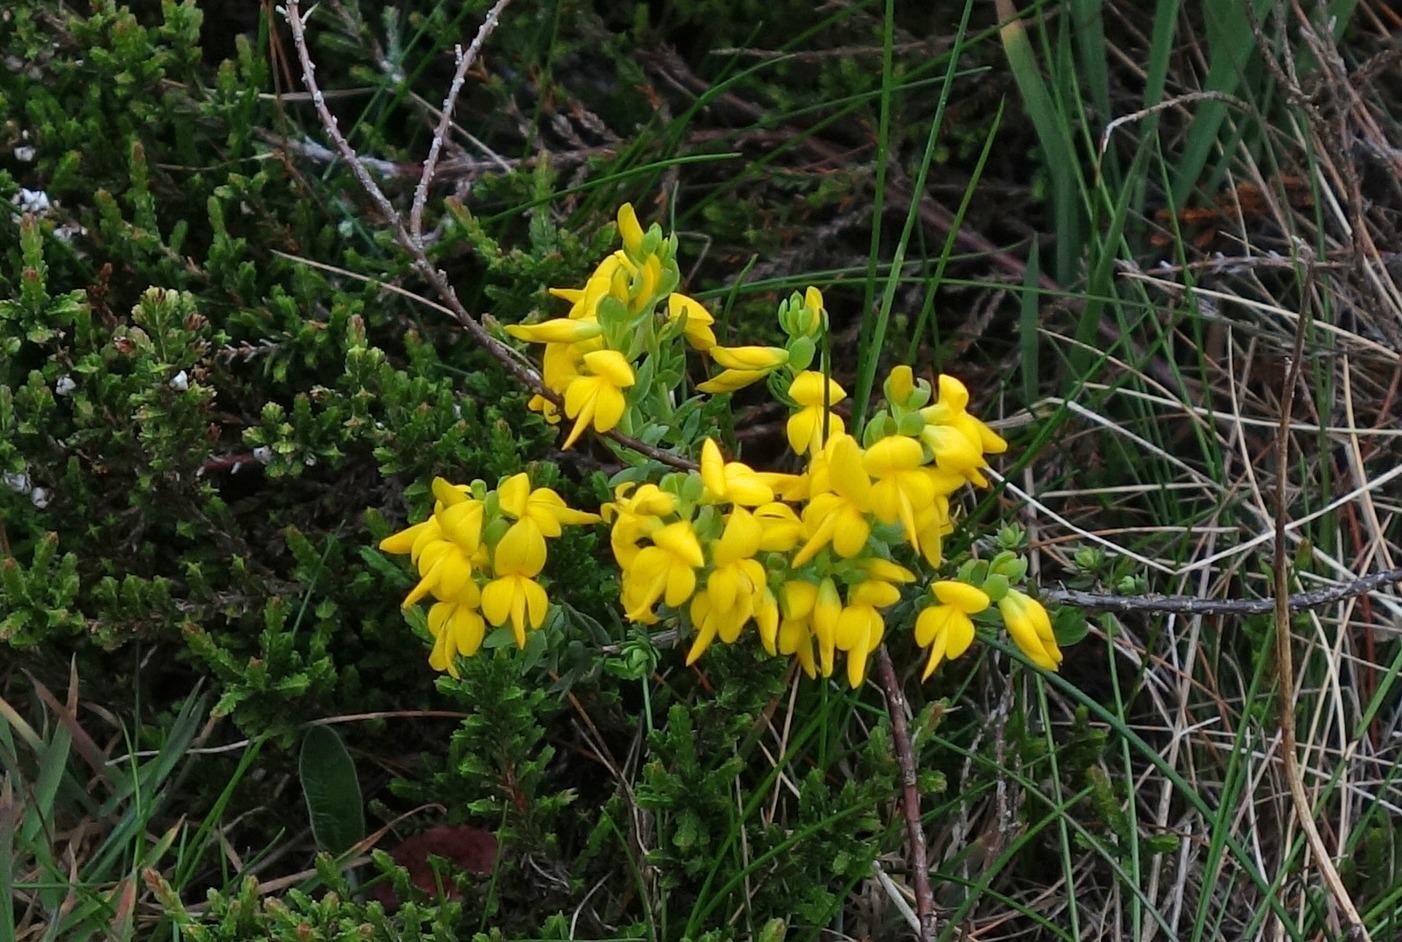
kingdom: Plantae
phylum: Tracheophyta
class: Magnoliopsida
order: Fabales
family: Fabaceae
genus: Genista
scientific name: Genista anglica
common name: Engelsk visse
